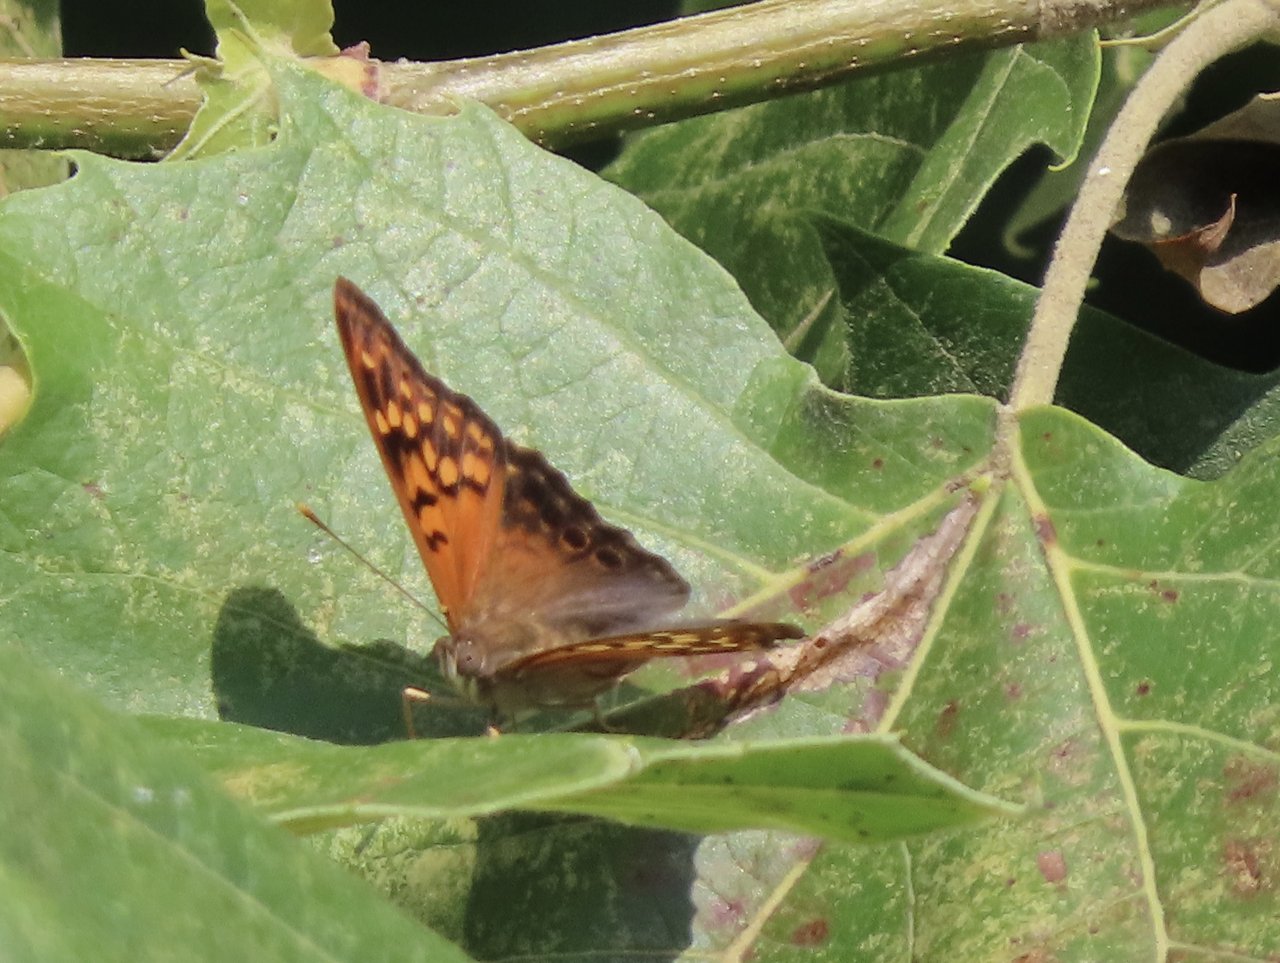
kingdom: Animalia
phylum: Arthropoda
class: Insecta
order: Lepidoptera
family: Nymphalidae
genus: Asterocampa
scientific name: Asterocampa clyton
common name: Tawny Emperor
